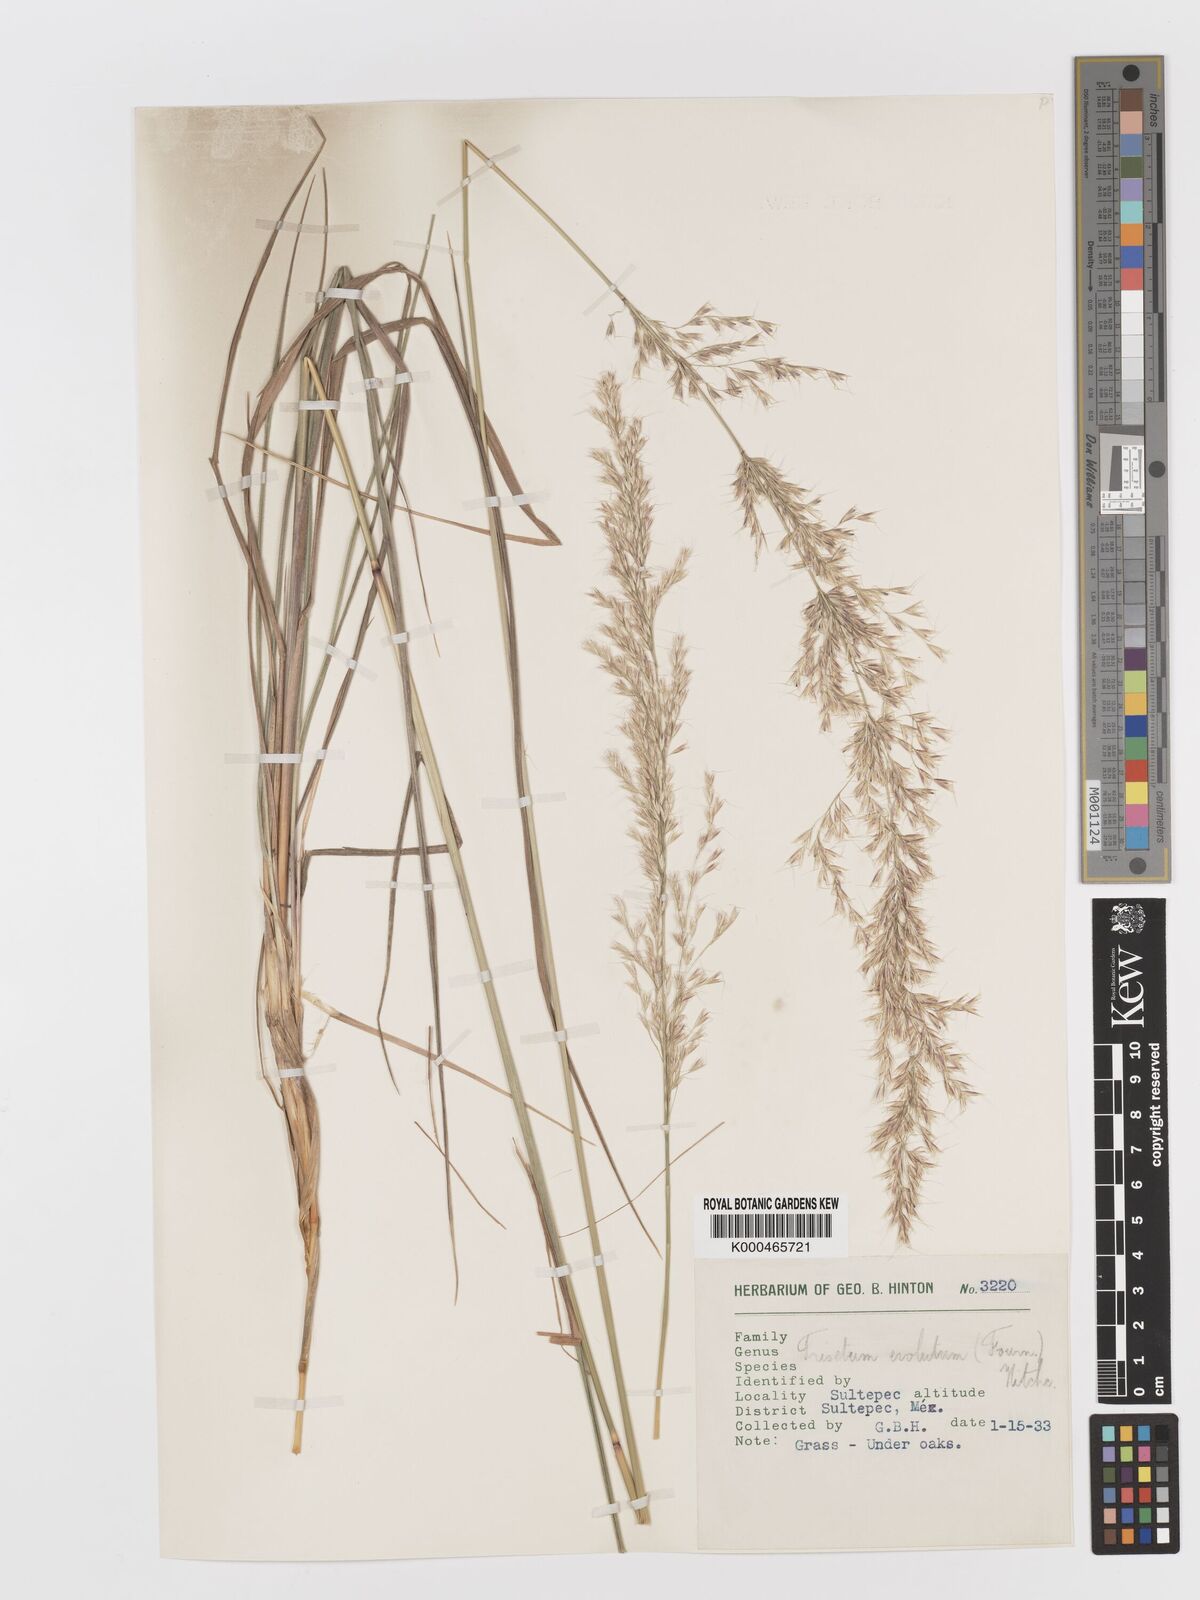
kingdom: Plantae
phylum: Tracheophyta
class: Liliopsida
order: Poales
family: Poaceae
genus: Peyritschia
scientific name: Peyritschia deyeuxioides
